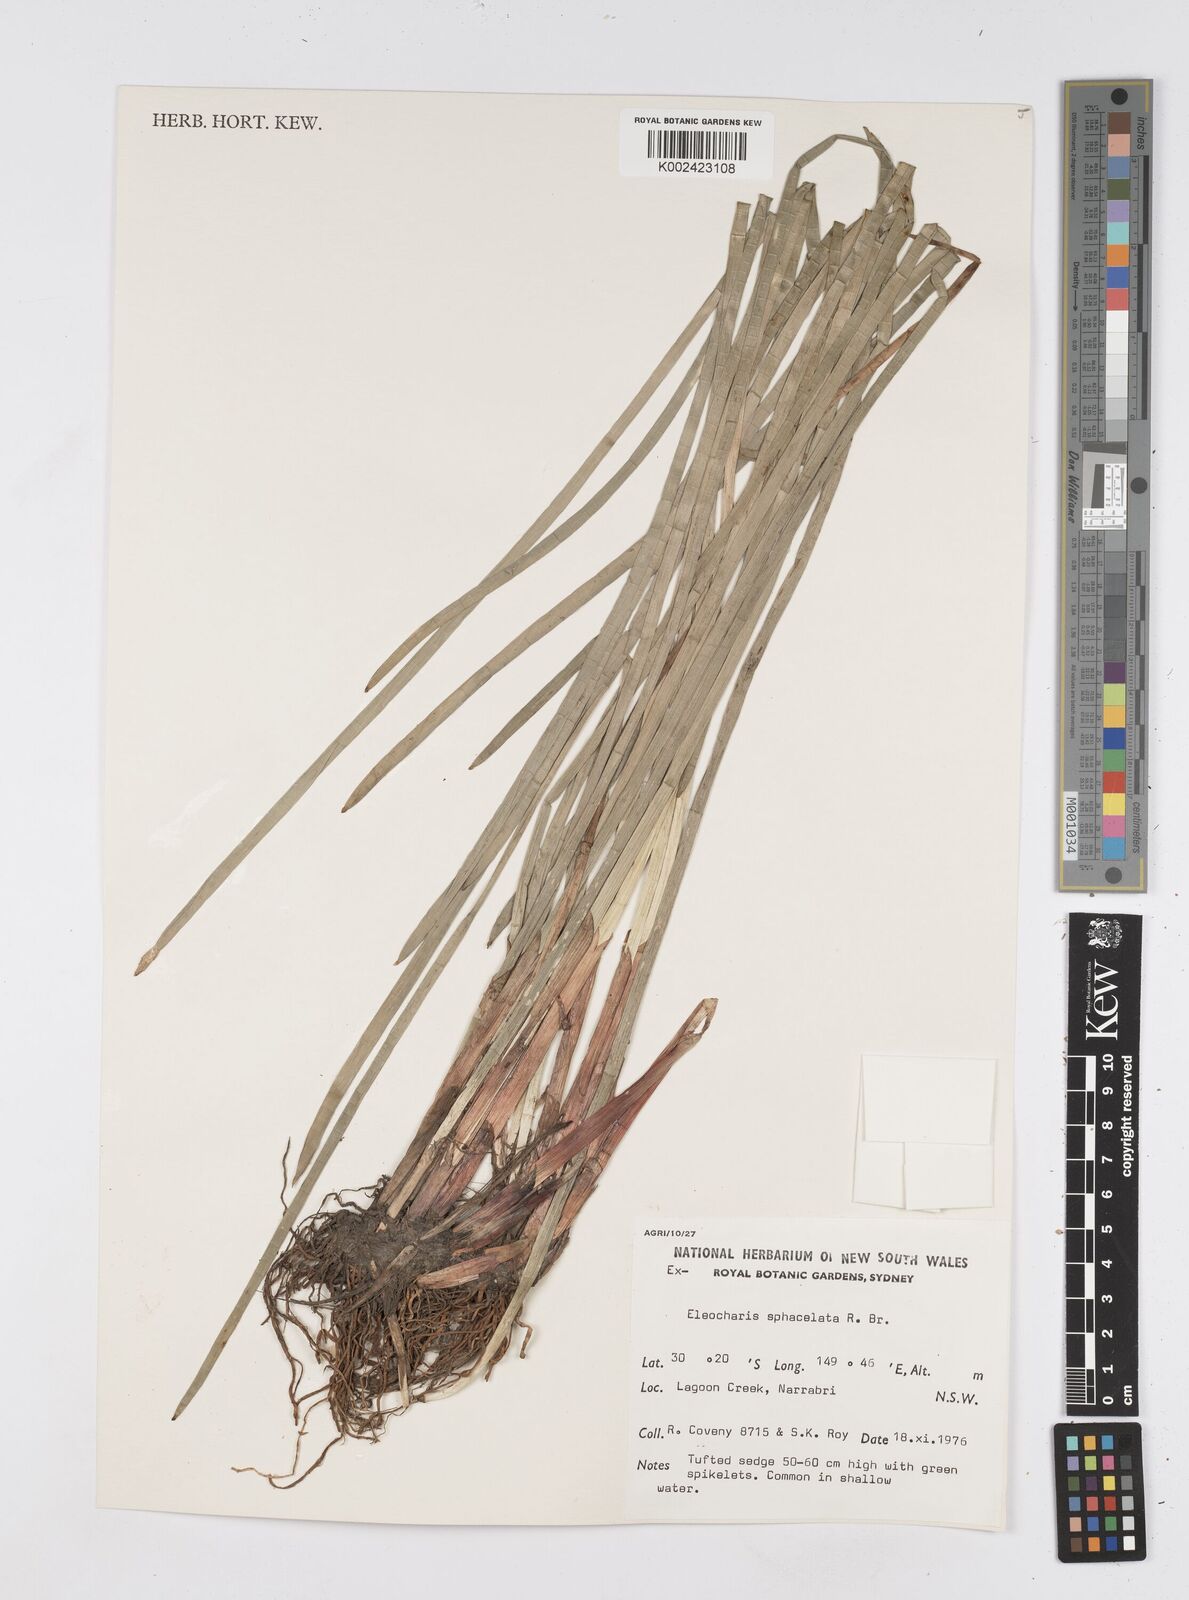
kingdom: Plantae
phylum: Tracheophyta
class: Liliopsida
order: Poales
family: Cyperaceae
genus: Eleocharis
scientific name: Eleocharis sphacelata
